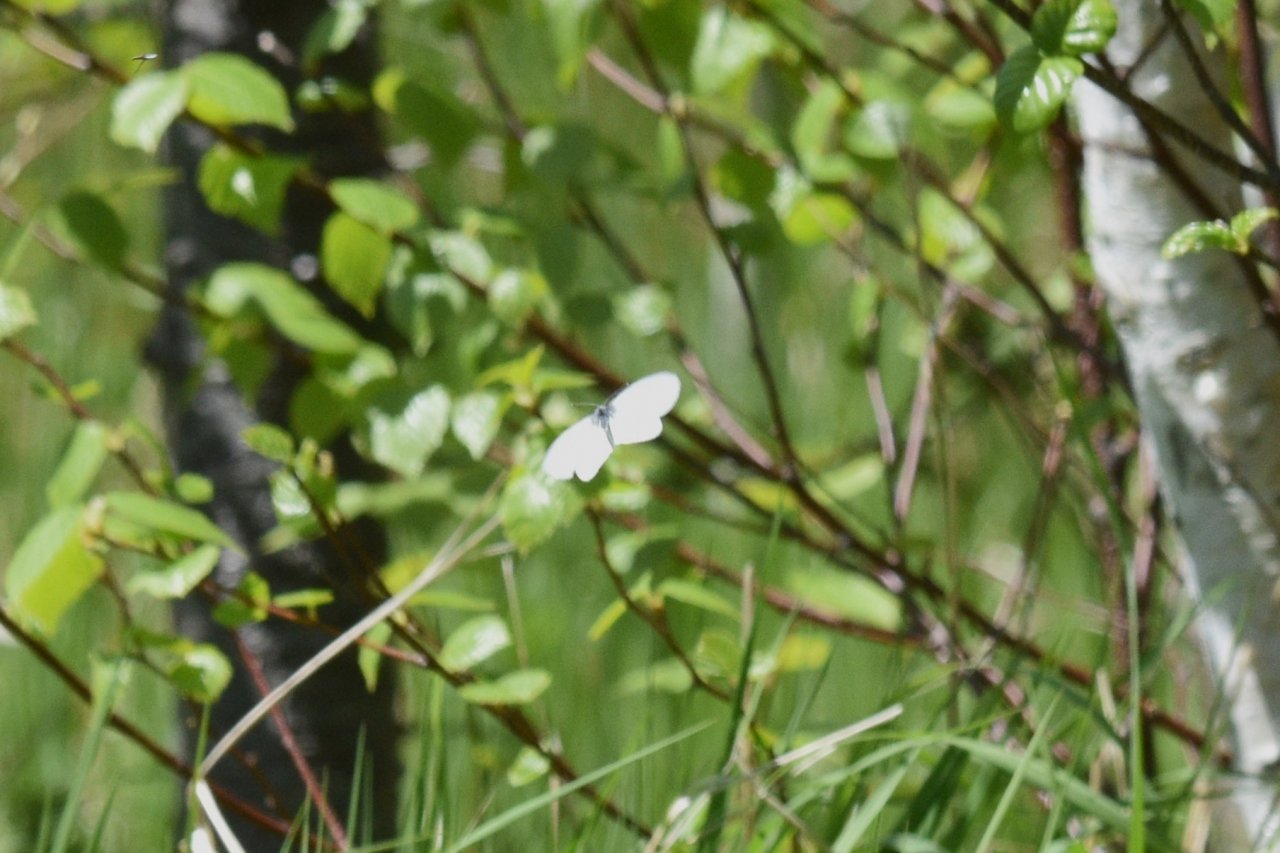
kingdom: Animalia
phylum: Arthropoda
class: Insecta
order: Lepidoptera
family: Pieridae
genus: Pieris
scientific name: Pieris
